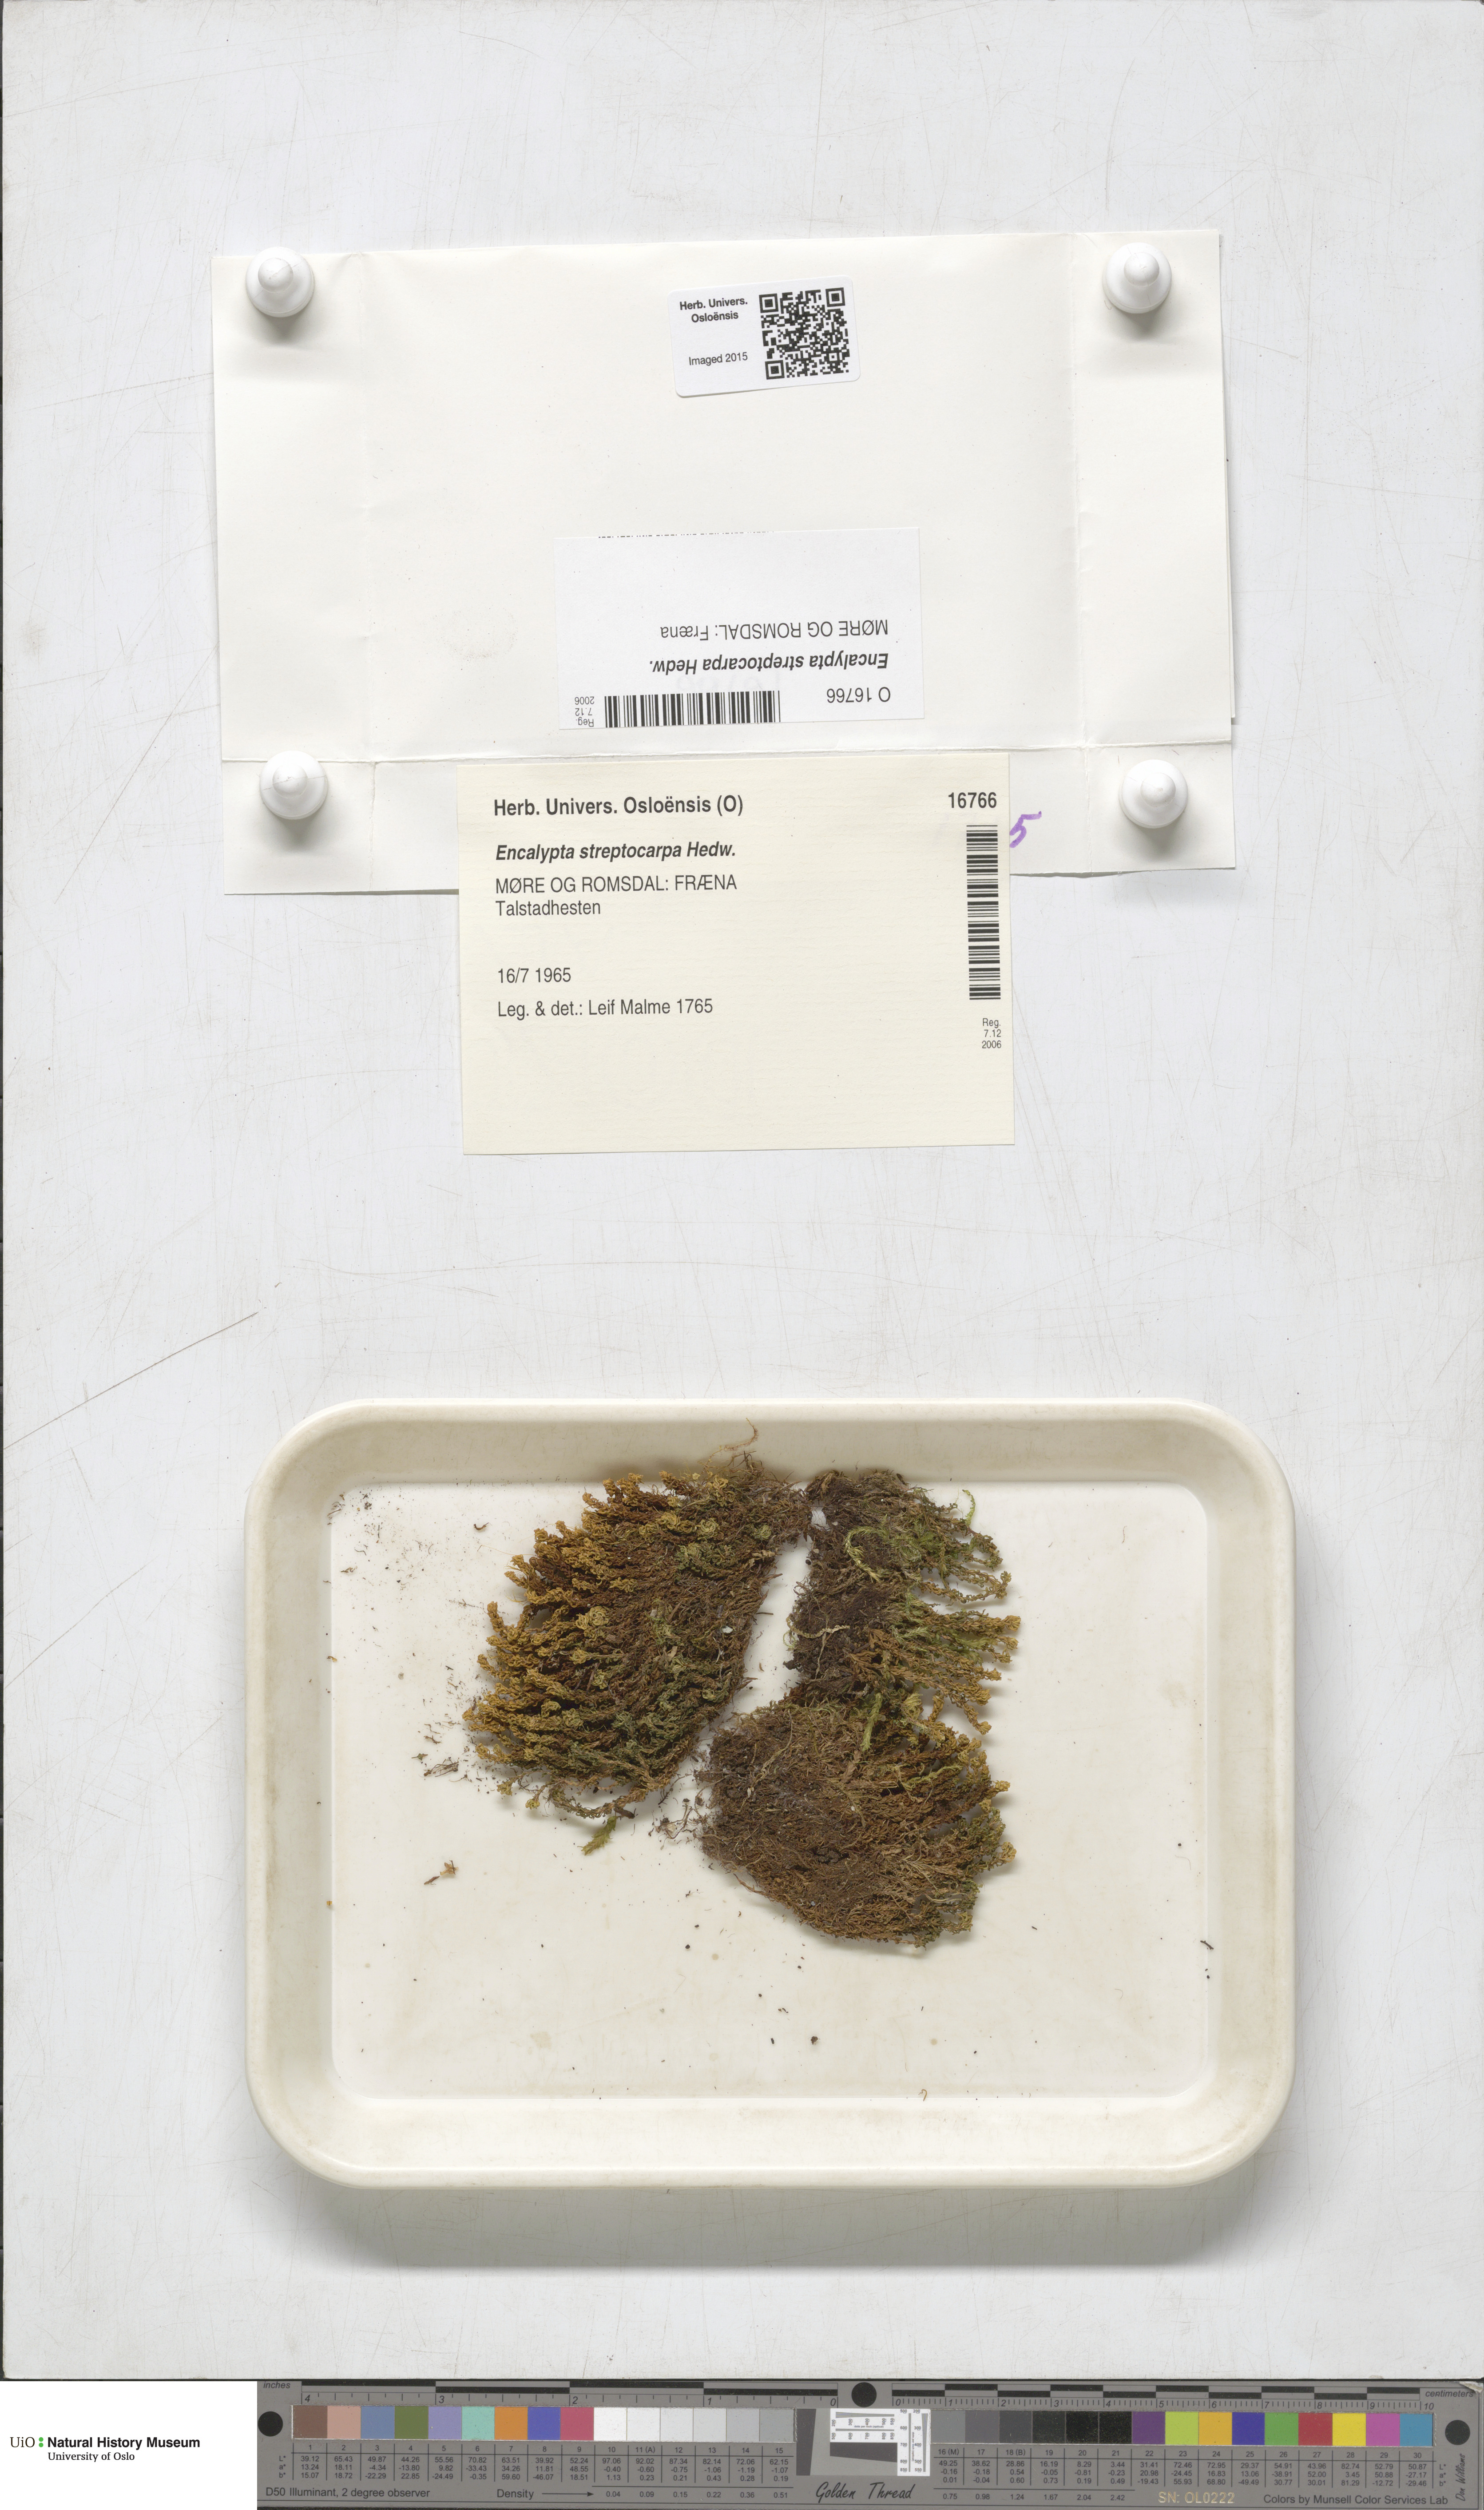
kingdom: Plantae
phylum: Bryophyta
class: Bryopsida
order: Encalyptales
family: Encalyptaceae
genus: Encalypta
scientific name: Encalypta streptocarpa
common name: Spiral extinguisher-moss
